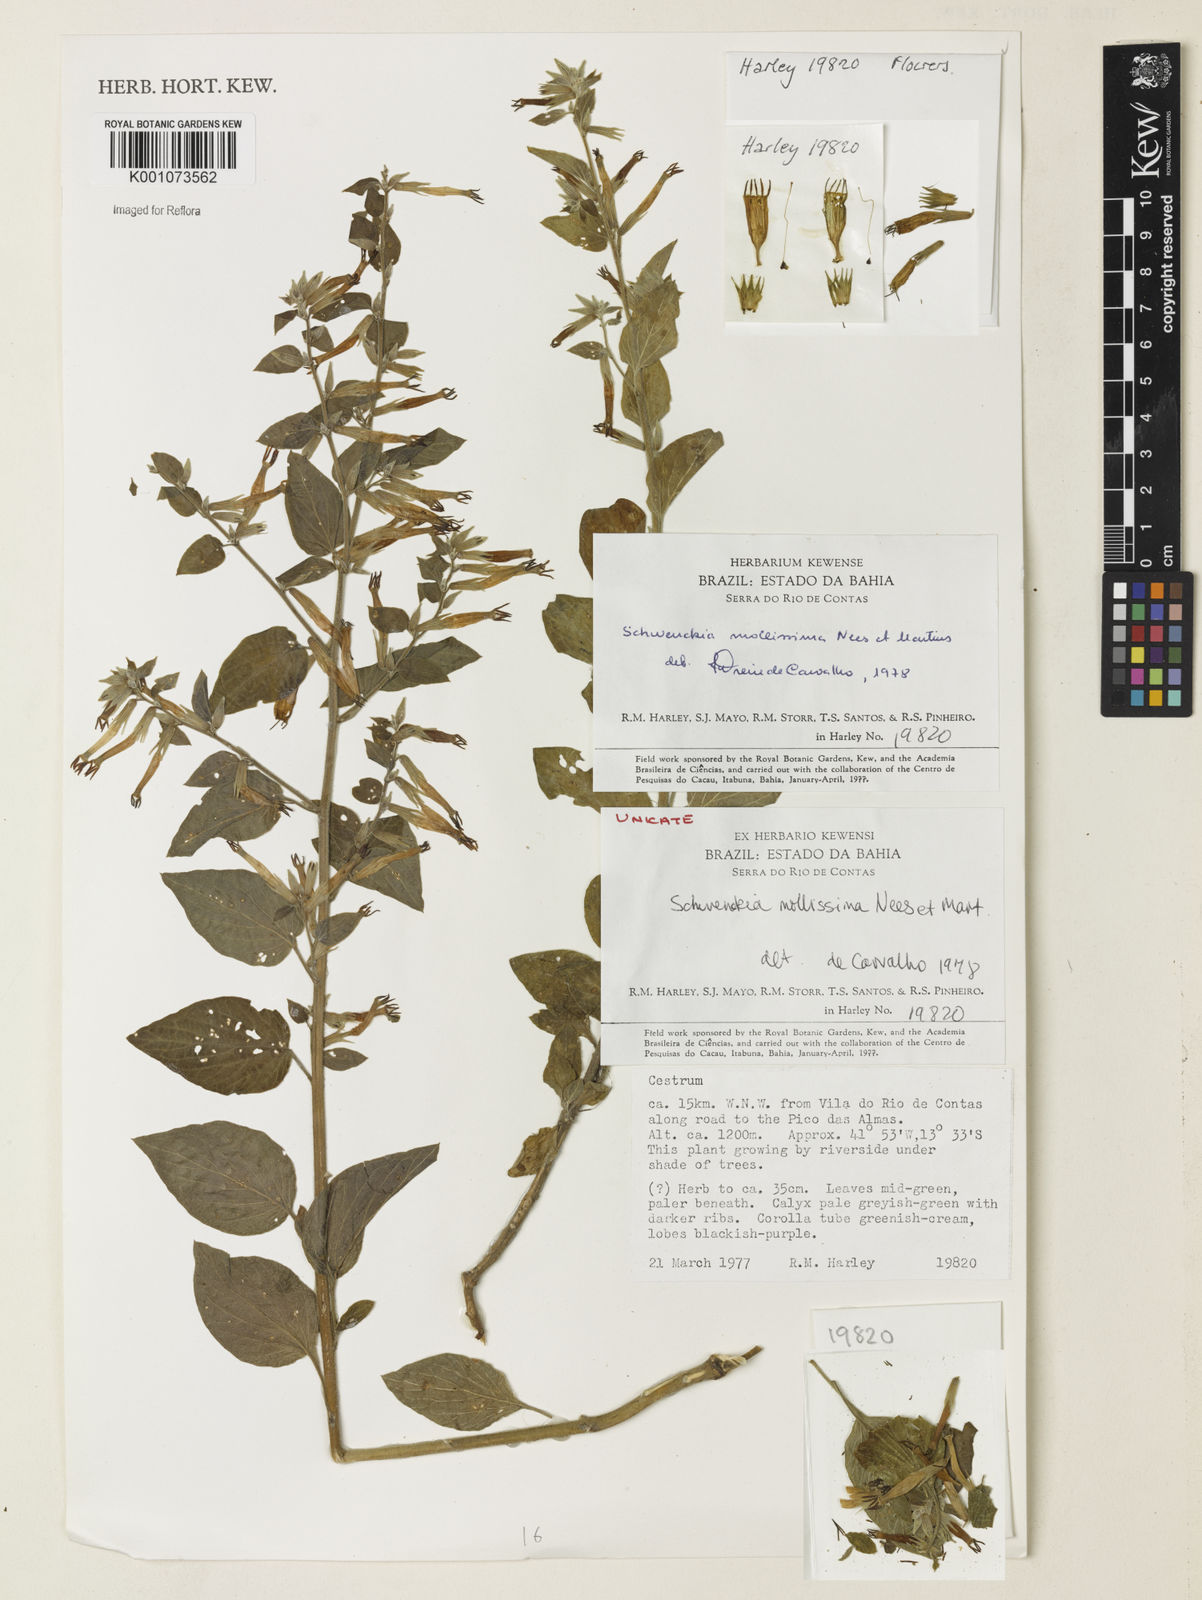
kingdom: Plantae
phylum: Tracheophyta
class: Magnoliopsida
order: Solanales
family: Solanaceae
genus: Schwenckia
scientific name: Schwenckia mollissima
